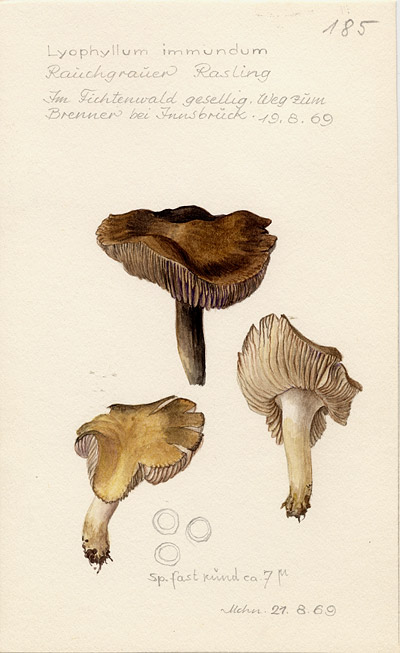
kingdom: Fungi
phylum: Basidiomycota
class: Agaricomycetes
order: Agaricales
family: Lyophyllaceae
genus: Lyophyllum
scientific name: Lyophyllum immundum
